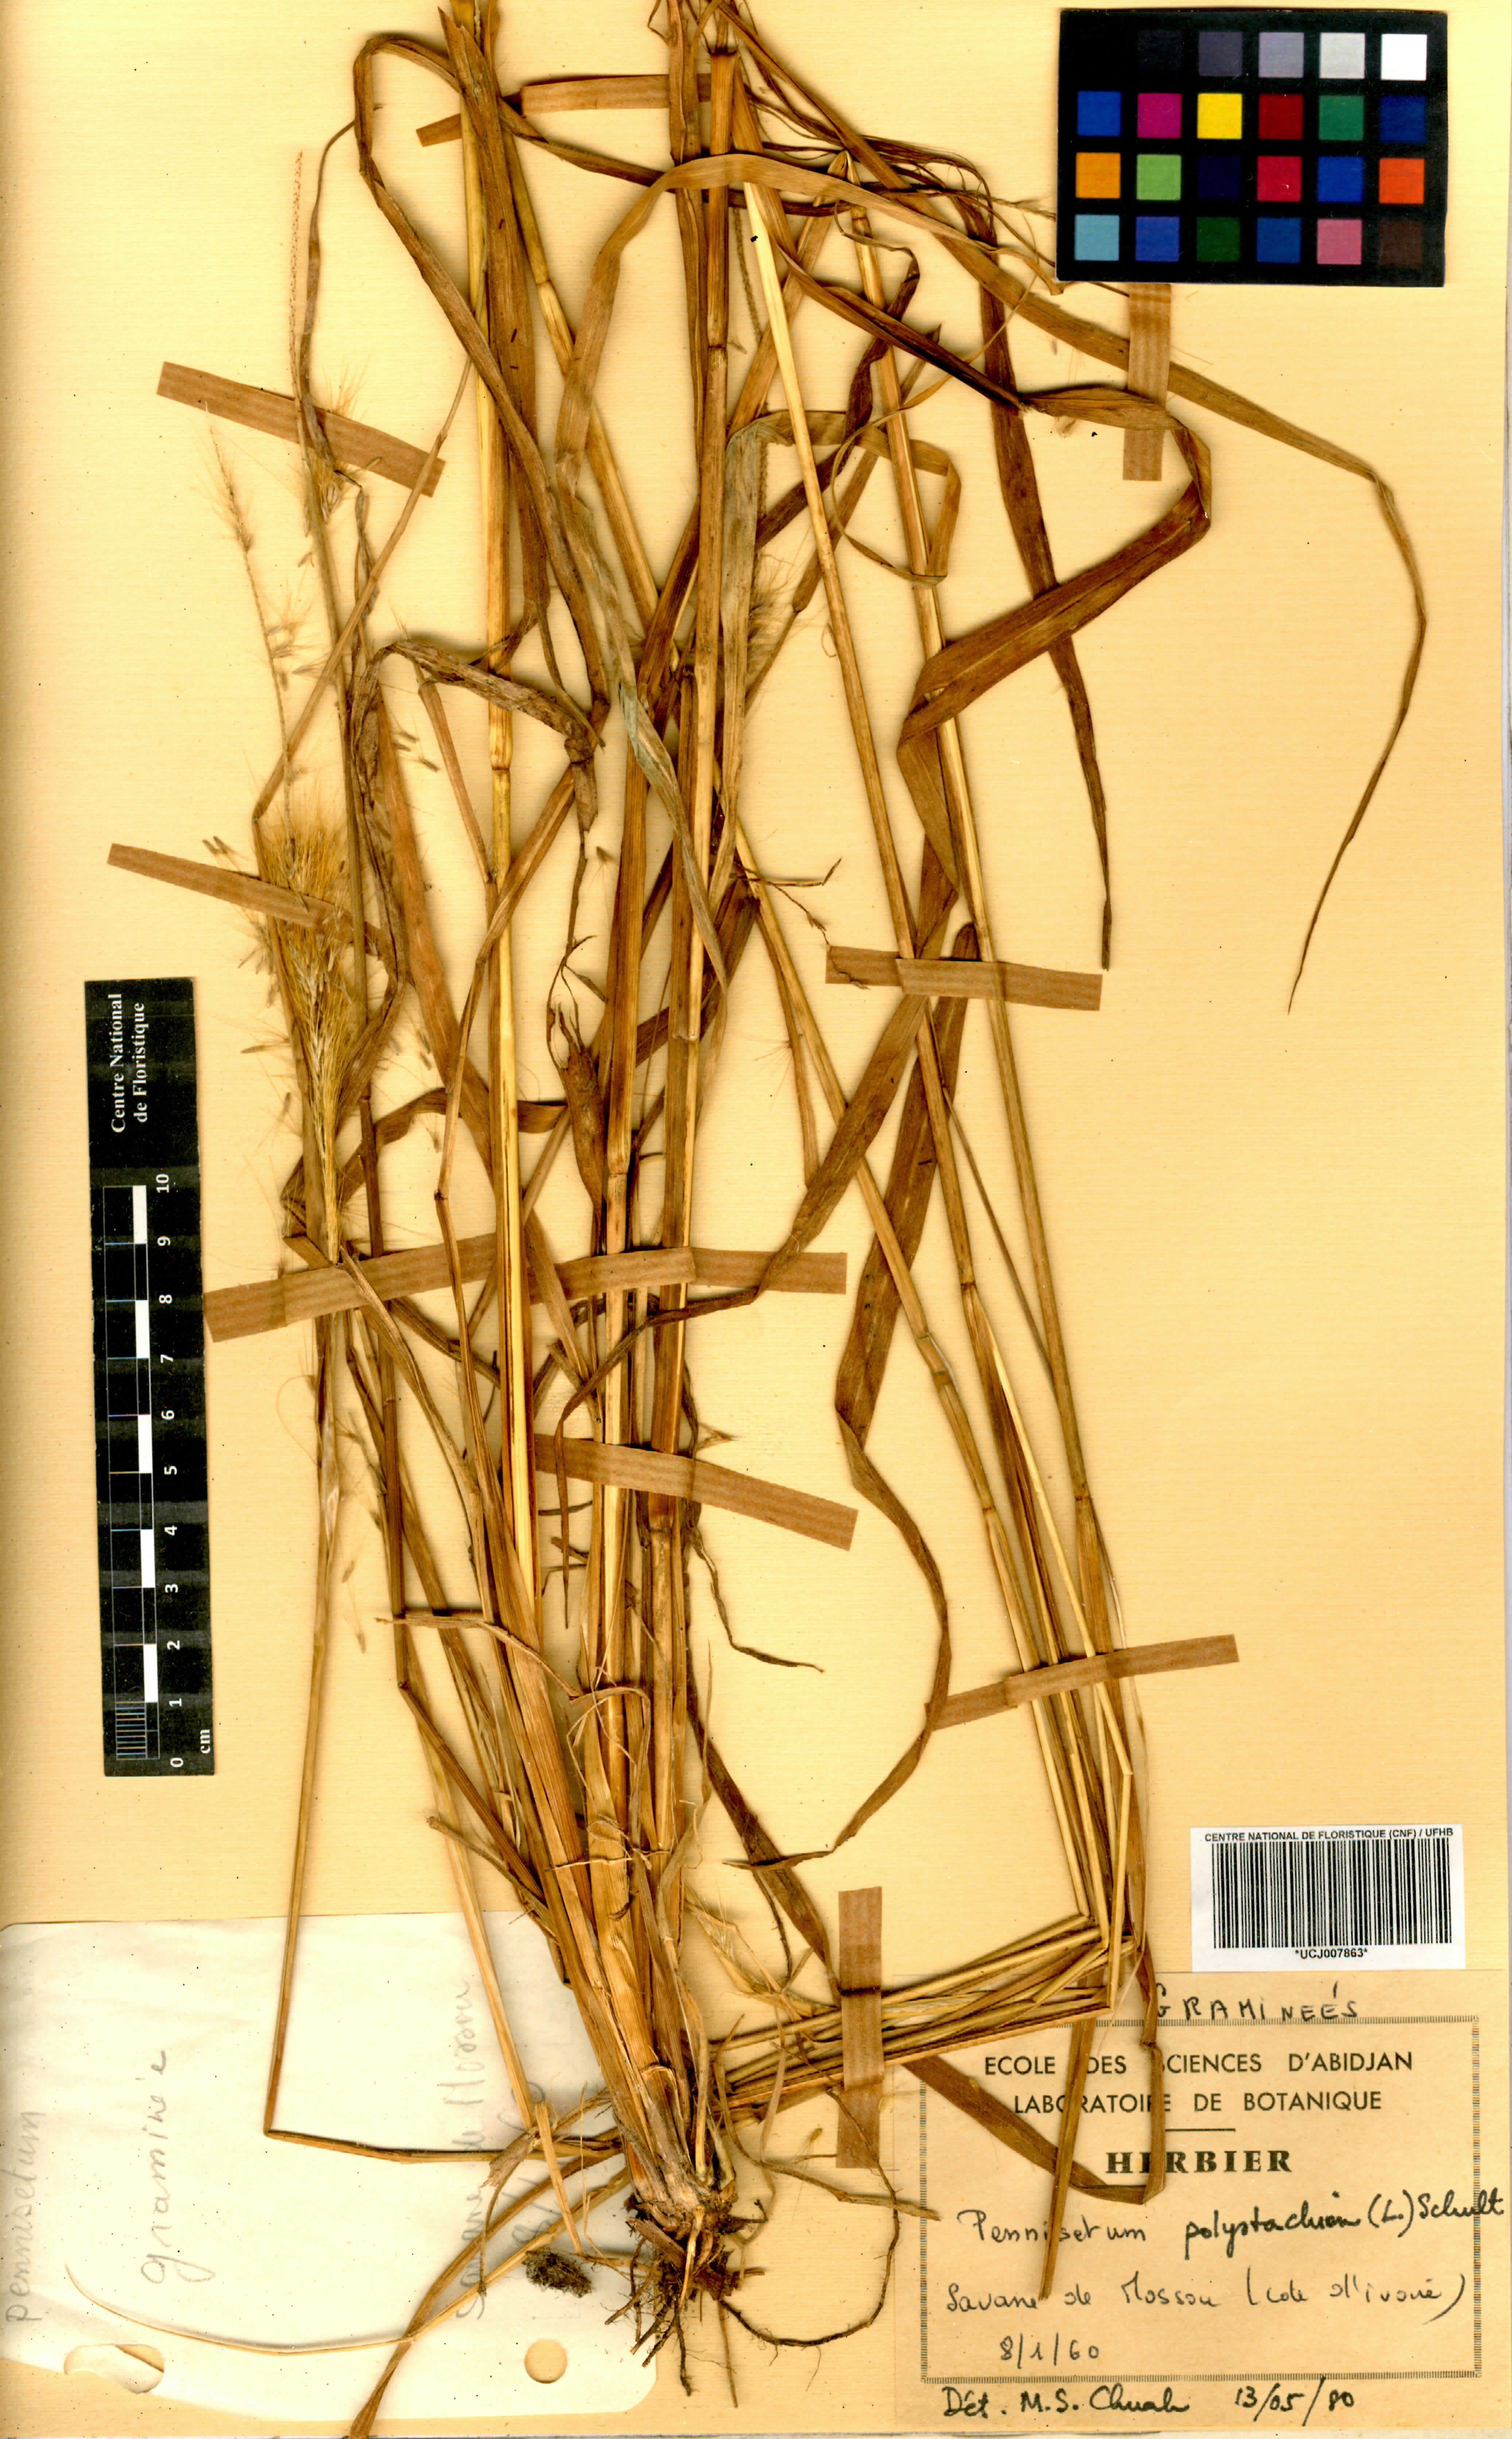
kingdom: Plantae
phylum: Tracheophyta
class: Liliopsida
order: Poales
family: Poaceae
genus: Setaria
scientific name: Setaria parviflora
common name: Knotroot bristle-grass
